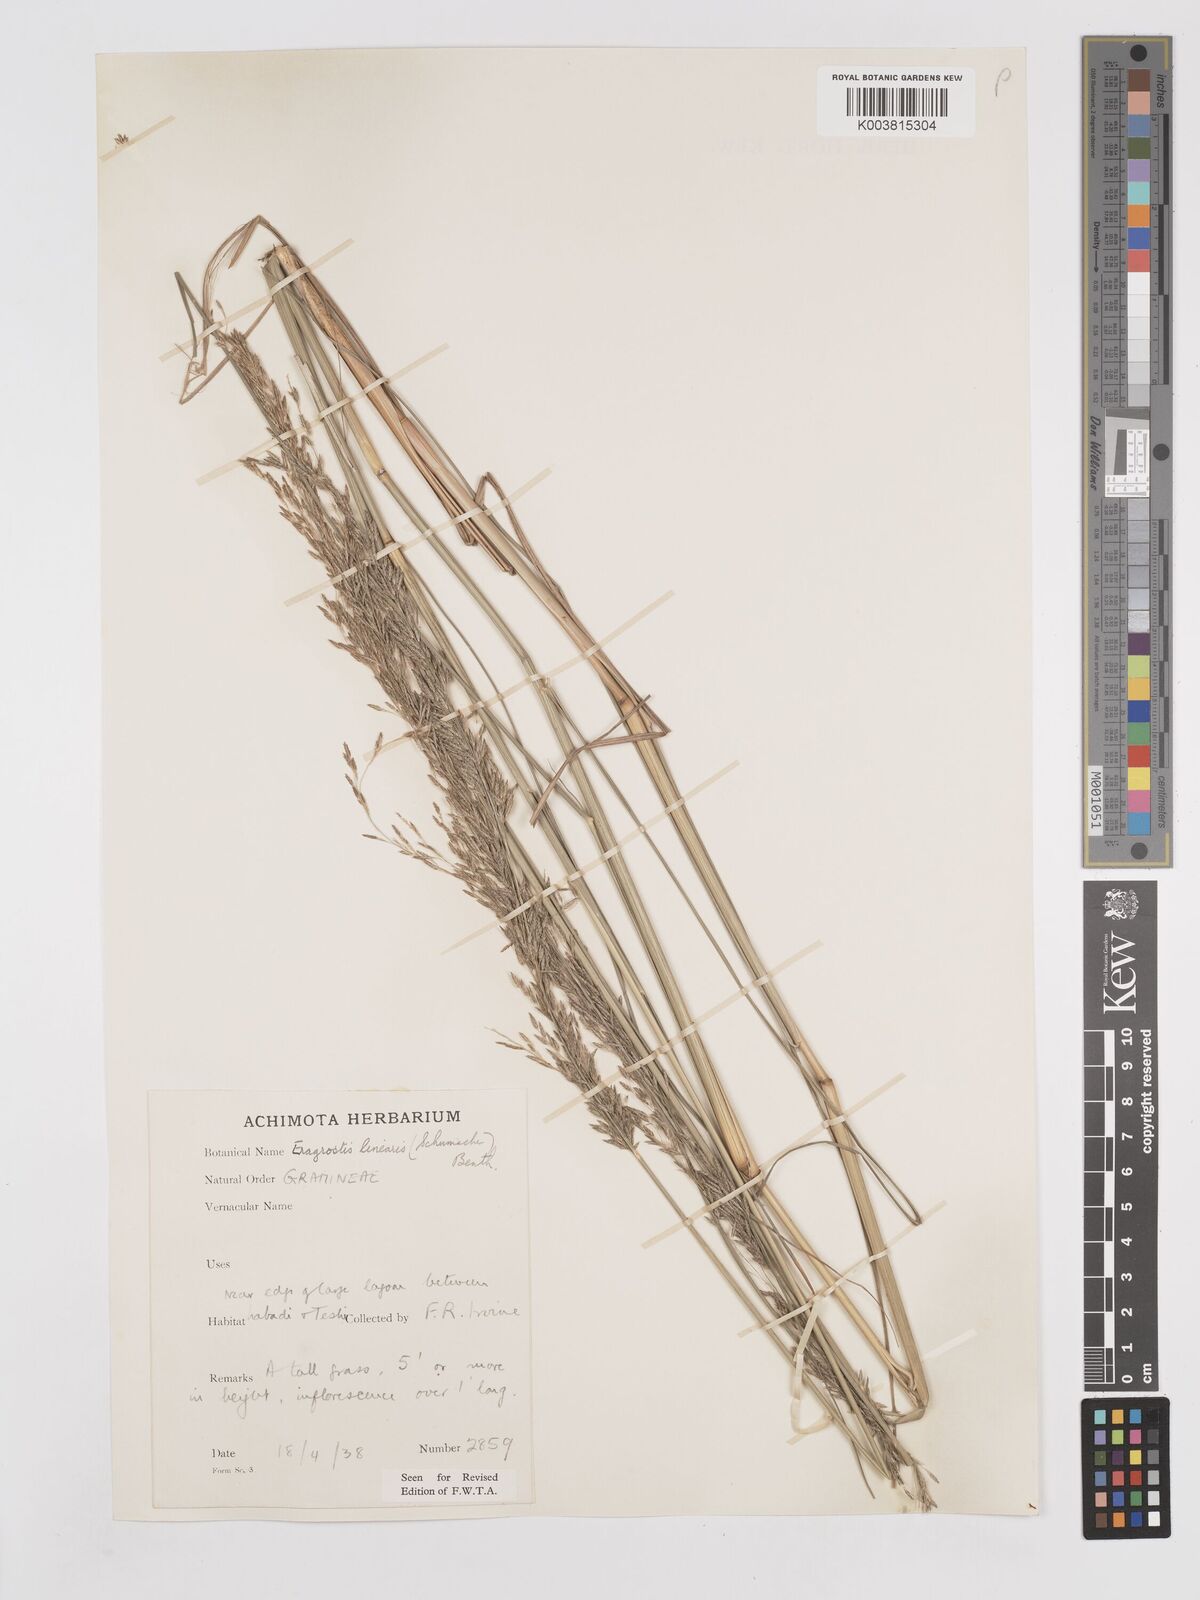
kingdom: Plantae
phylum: Tracheophyta
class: Liliopsida
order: Poales
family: Poaceae
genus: Eragrostis
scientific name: Eragrostis prolifera
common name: Dominican lovegrass
